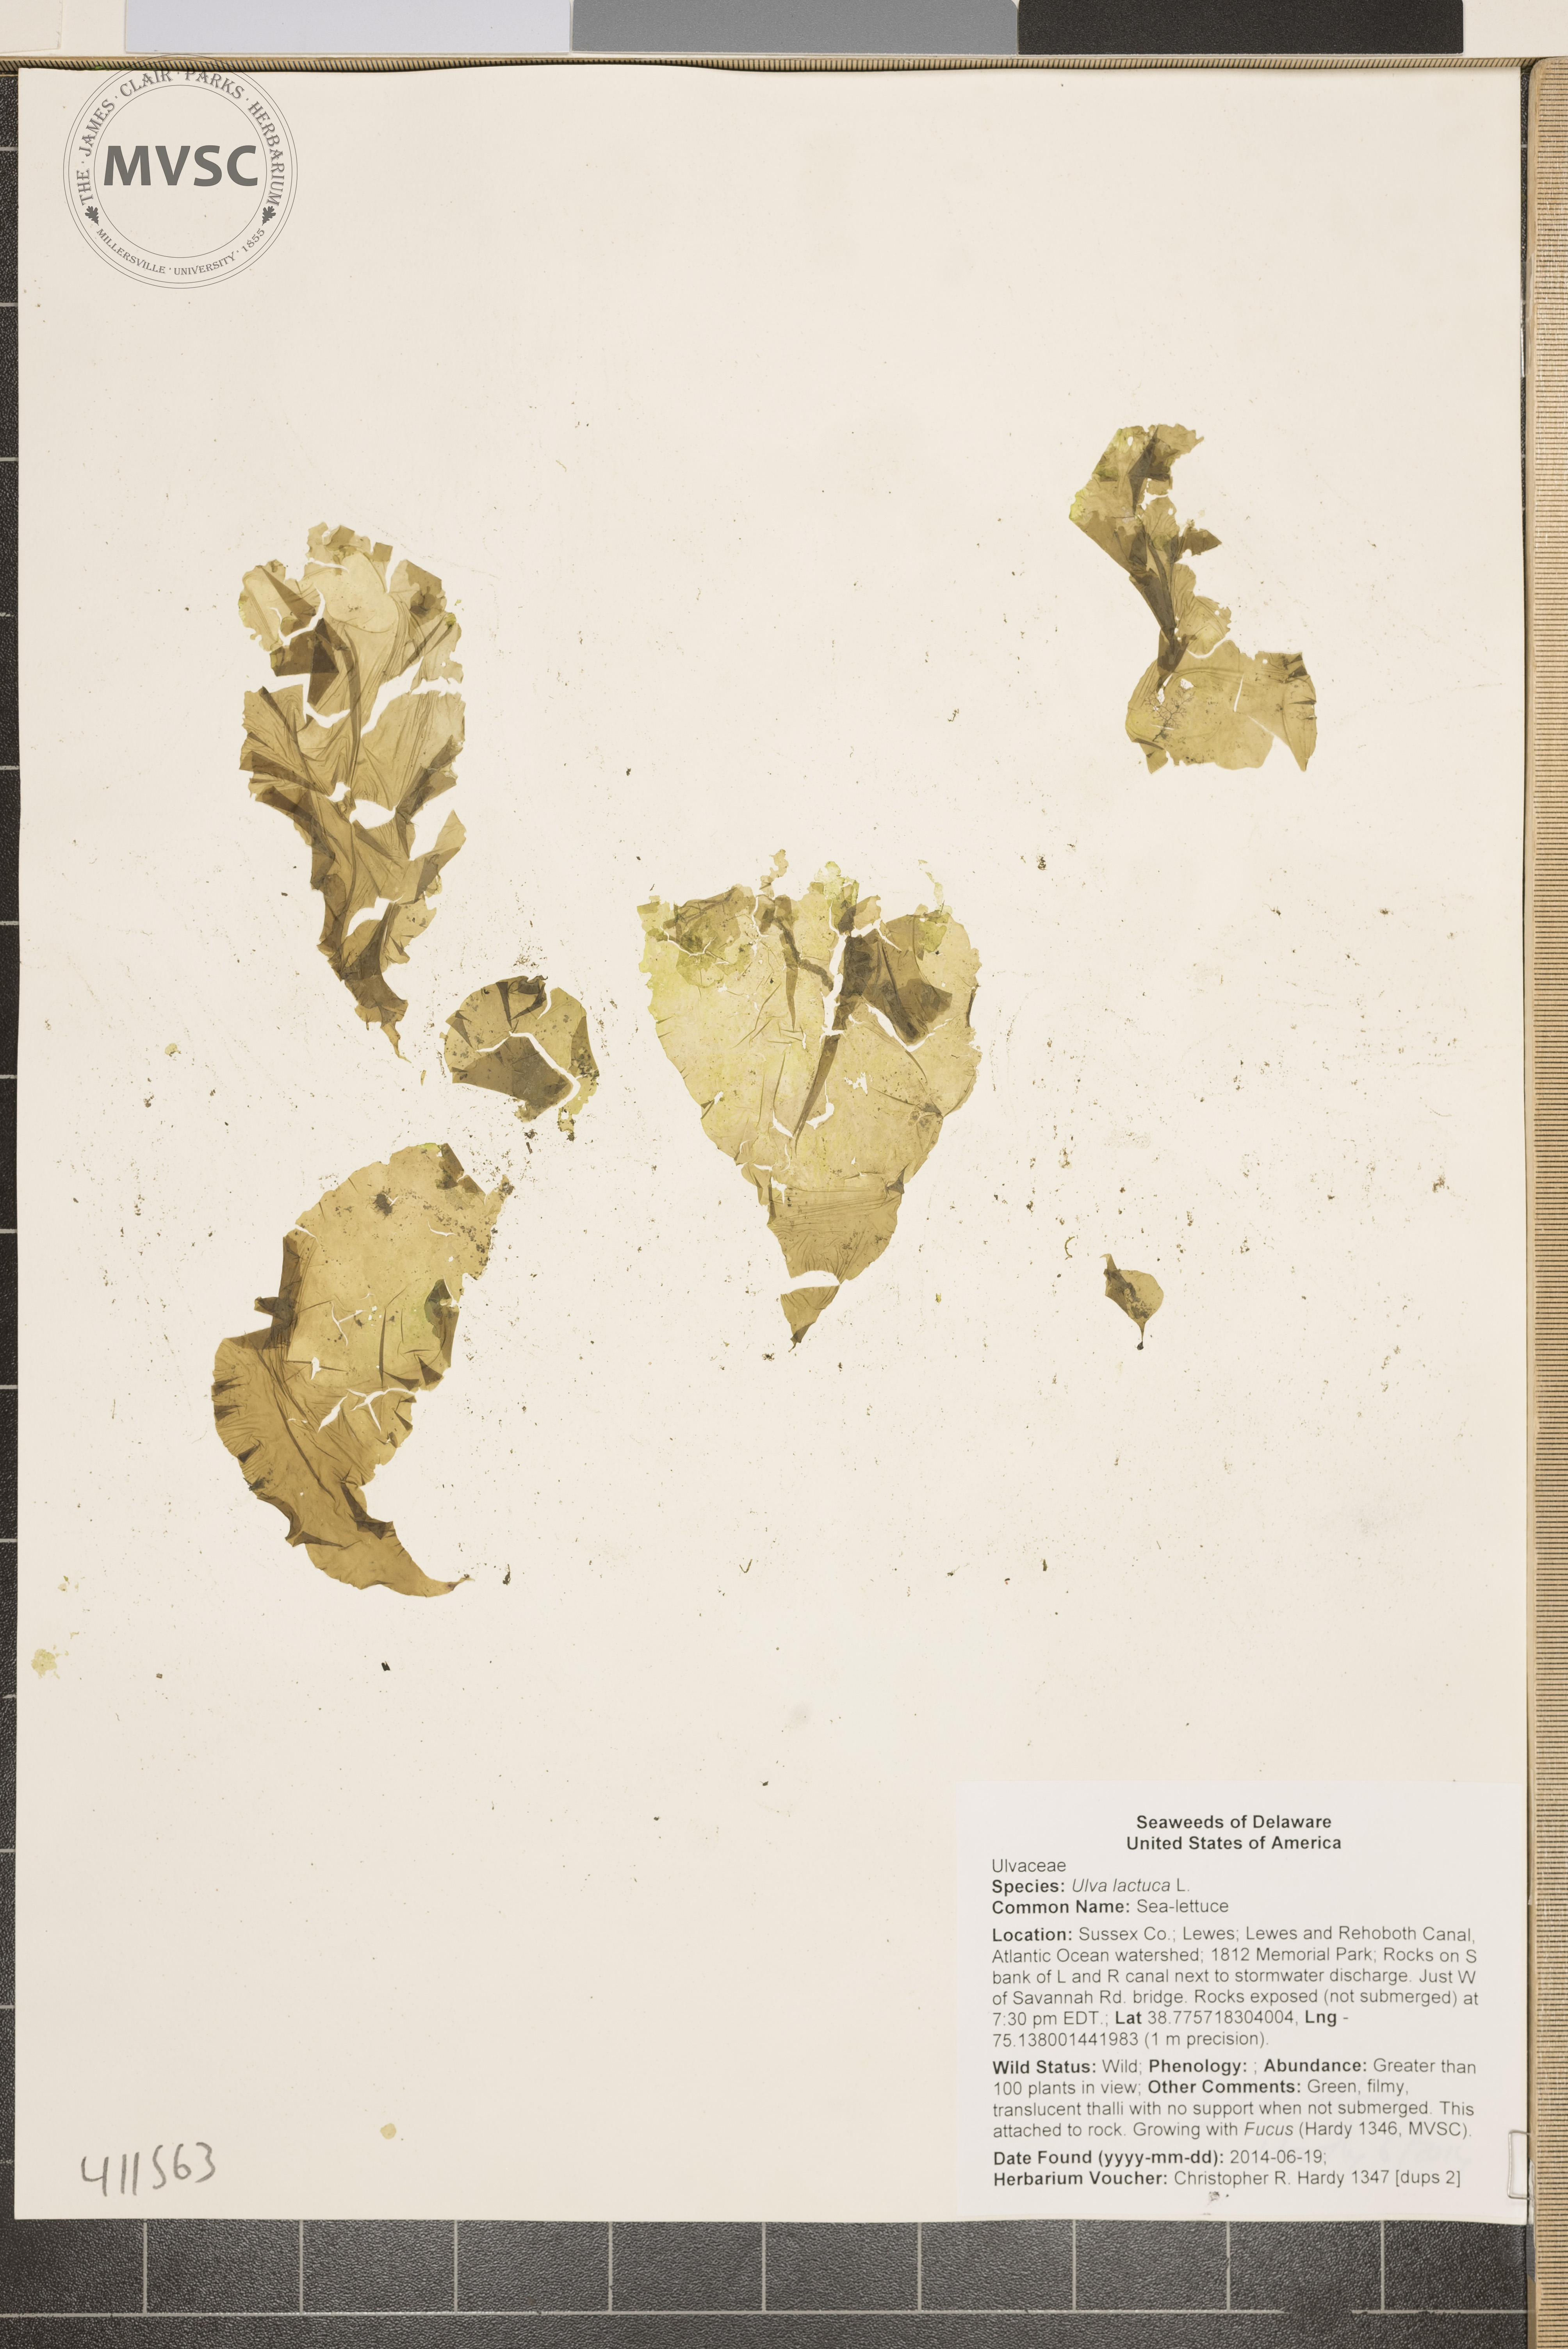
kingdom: Plantae
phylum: Chlorophyta
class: Ulvophyceae
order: Ulvales
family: Ulvaceae
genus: Ulva
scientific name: Ulva lactuca
